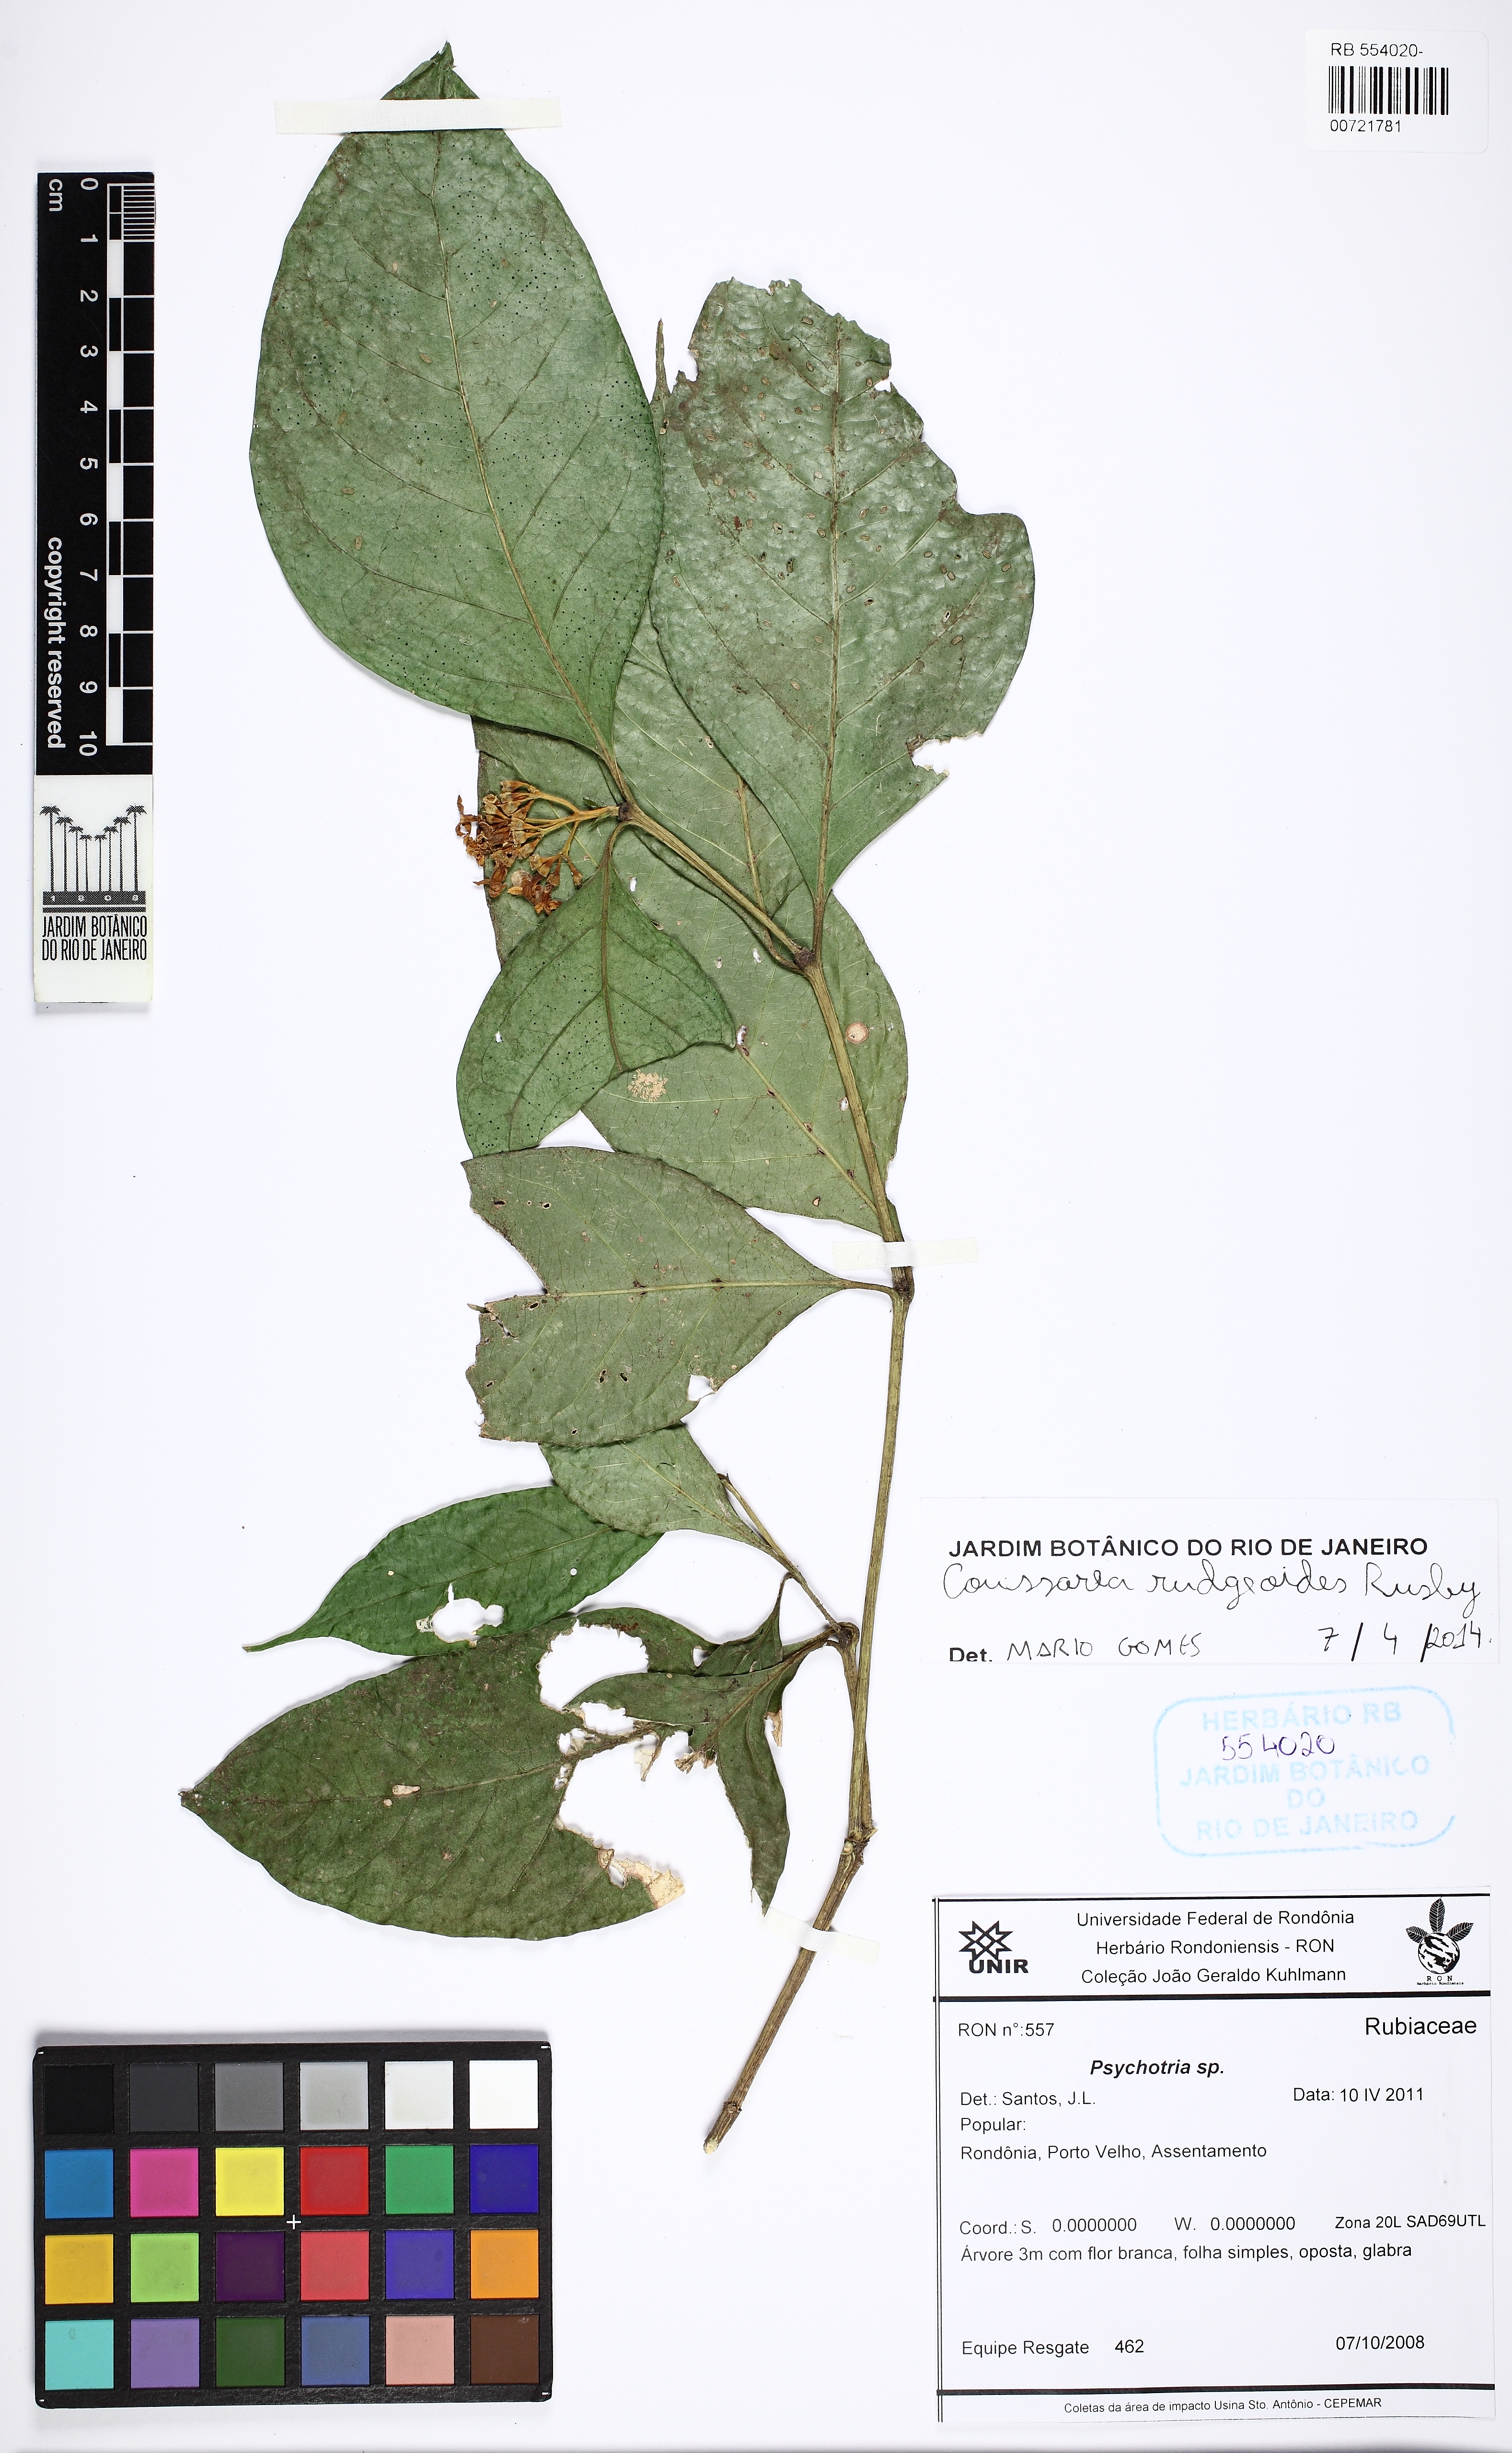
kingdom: Plantae
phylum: Tracheophyta
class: Magnoliopsida
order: Gentianales
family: Rubiaceae
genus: Coussarea
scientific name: Coussarea rudgeoides
